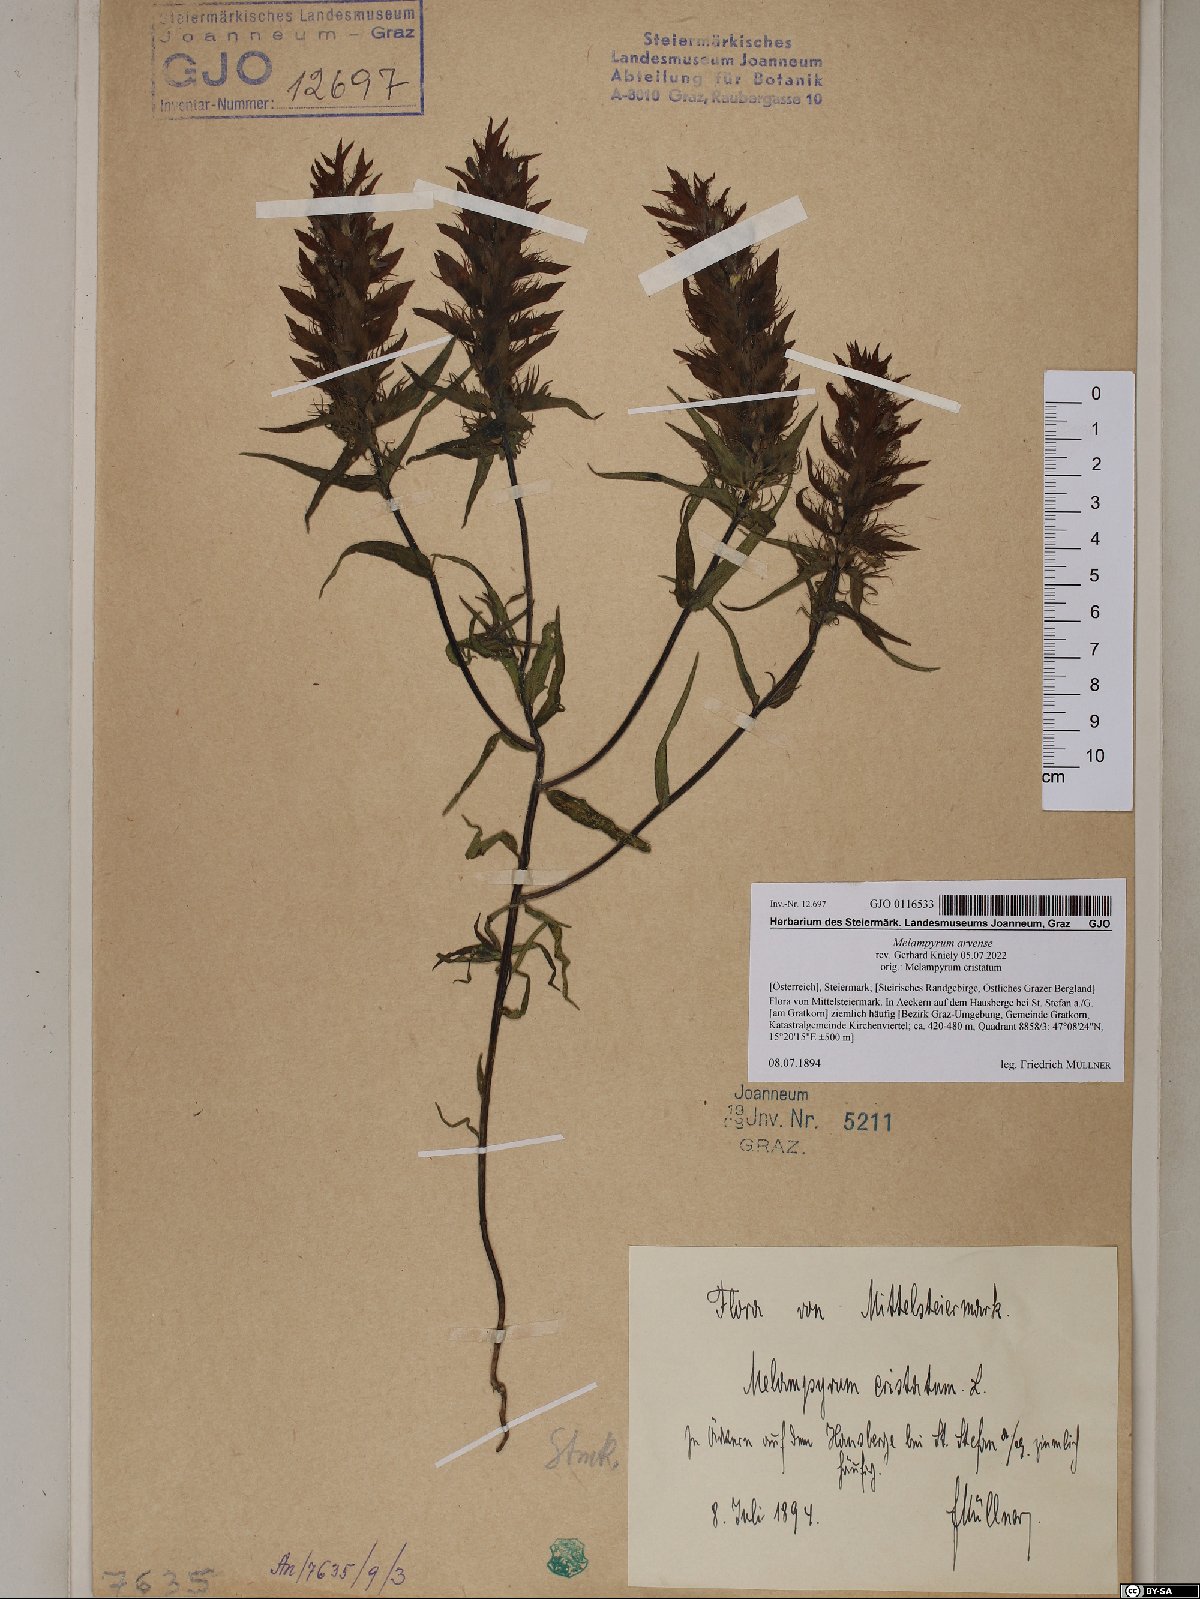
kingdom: Plantae
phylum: Tracheophyta
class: Magnoliopsida
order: Lamiales
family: Orobanchaceae
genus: Melampyrum
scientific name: Melampyrum arvense
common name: Field cow-wheat
